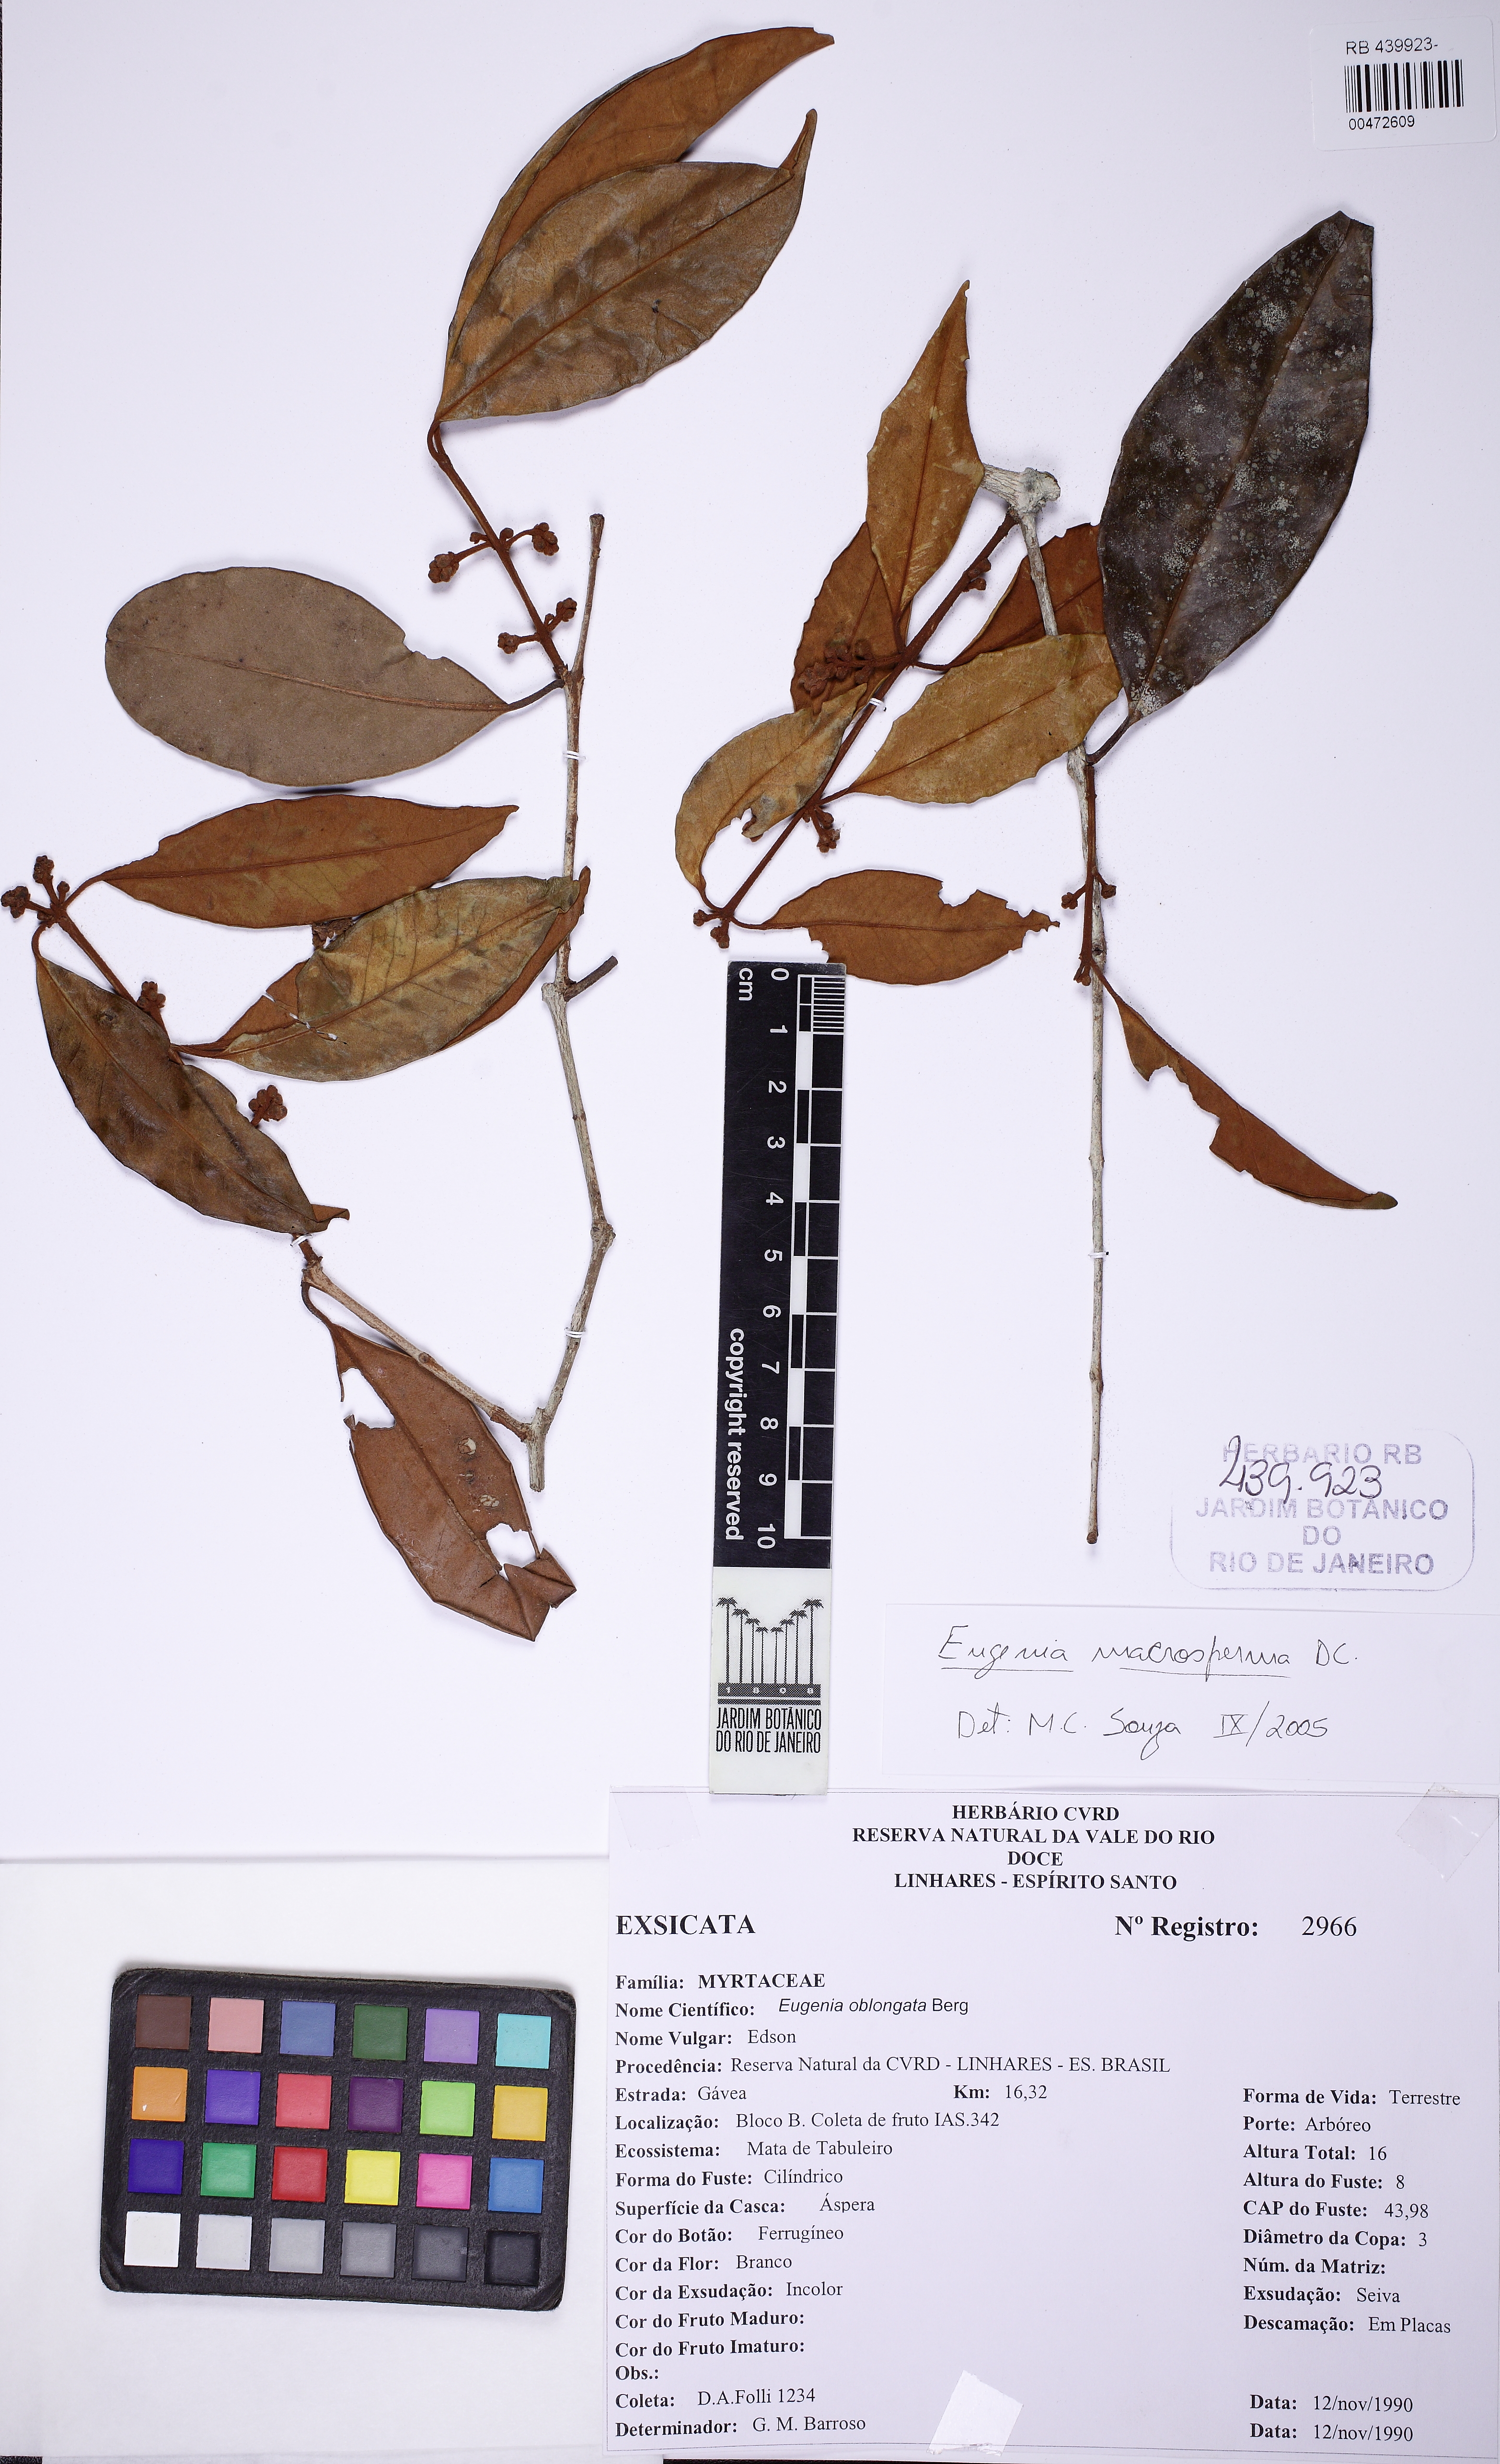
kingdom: Plantae
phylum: Tracheophyta
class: Magnoliopsida
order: Myrtales
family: Myrtaceae
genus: Eugenia
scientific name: Eugenia macrosperma
